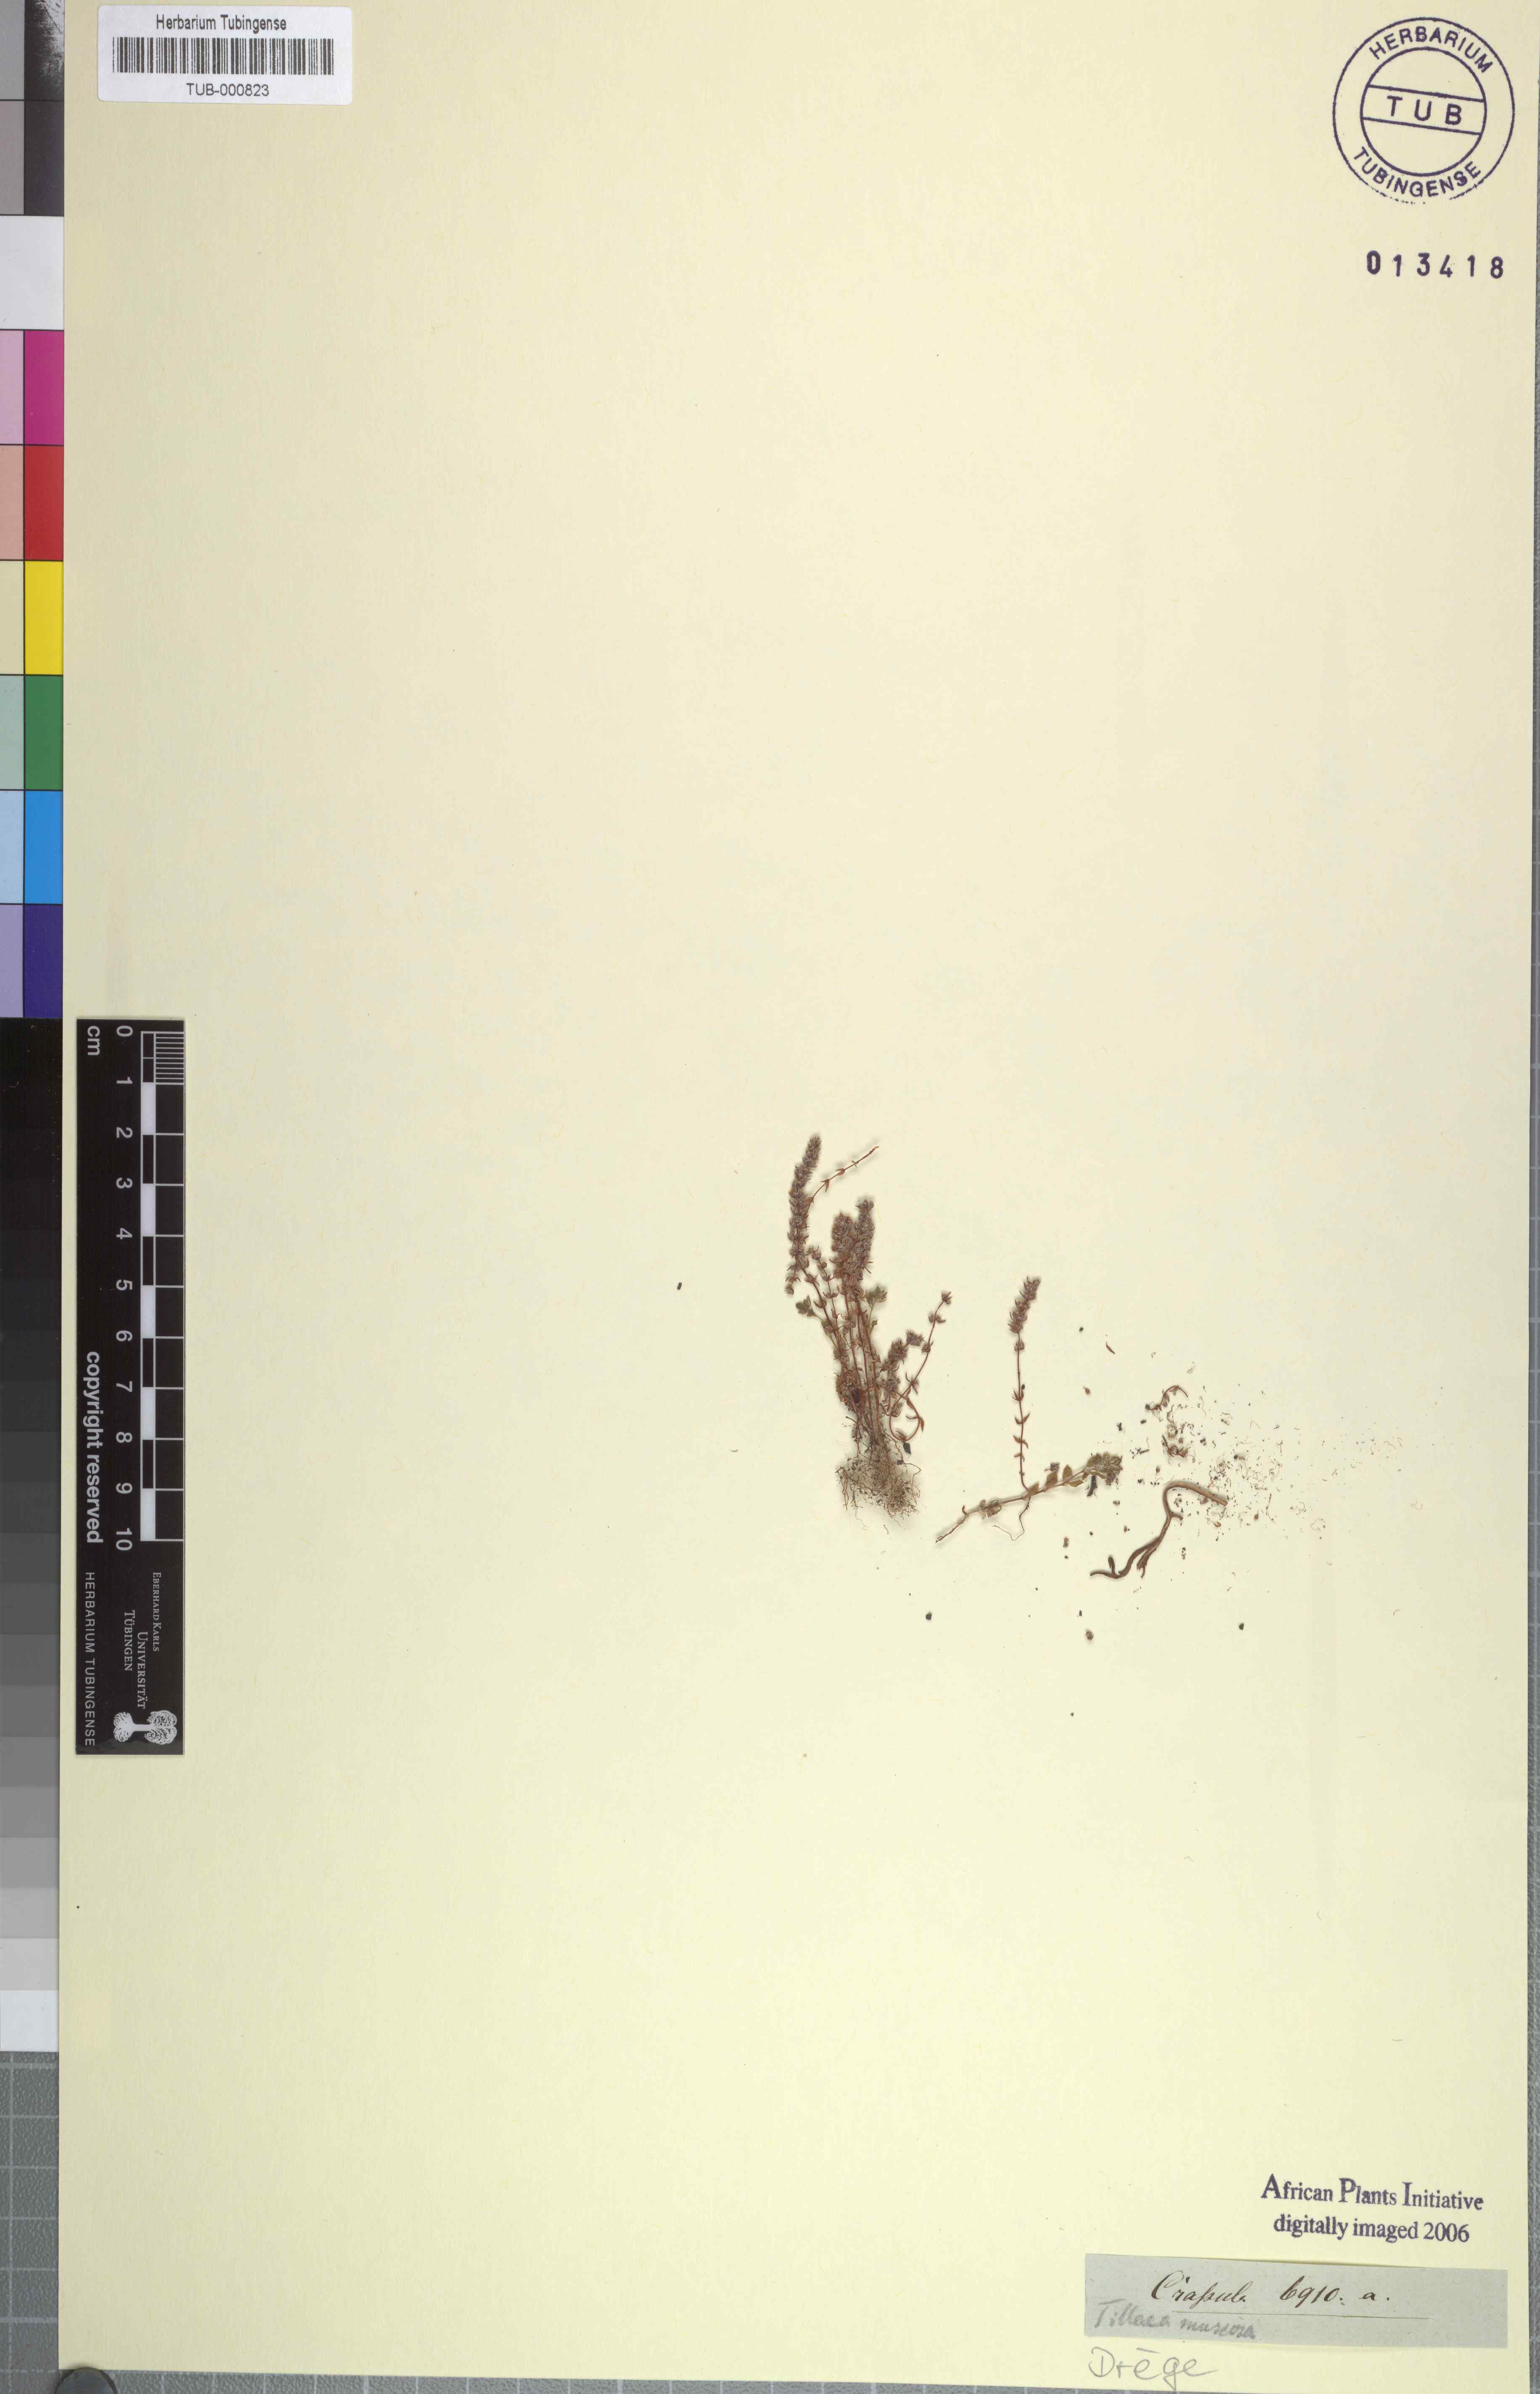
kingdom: Plantae
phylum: Tracheophyta
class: Magnoliopsida
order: Saxifragales
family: Crassulaceae
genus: Crassula
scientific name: Crassula tillaea
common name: Mossy stonecrop
